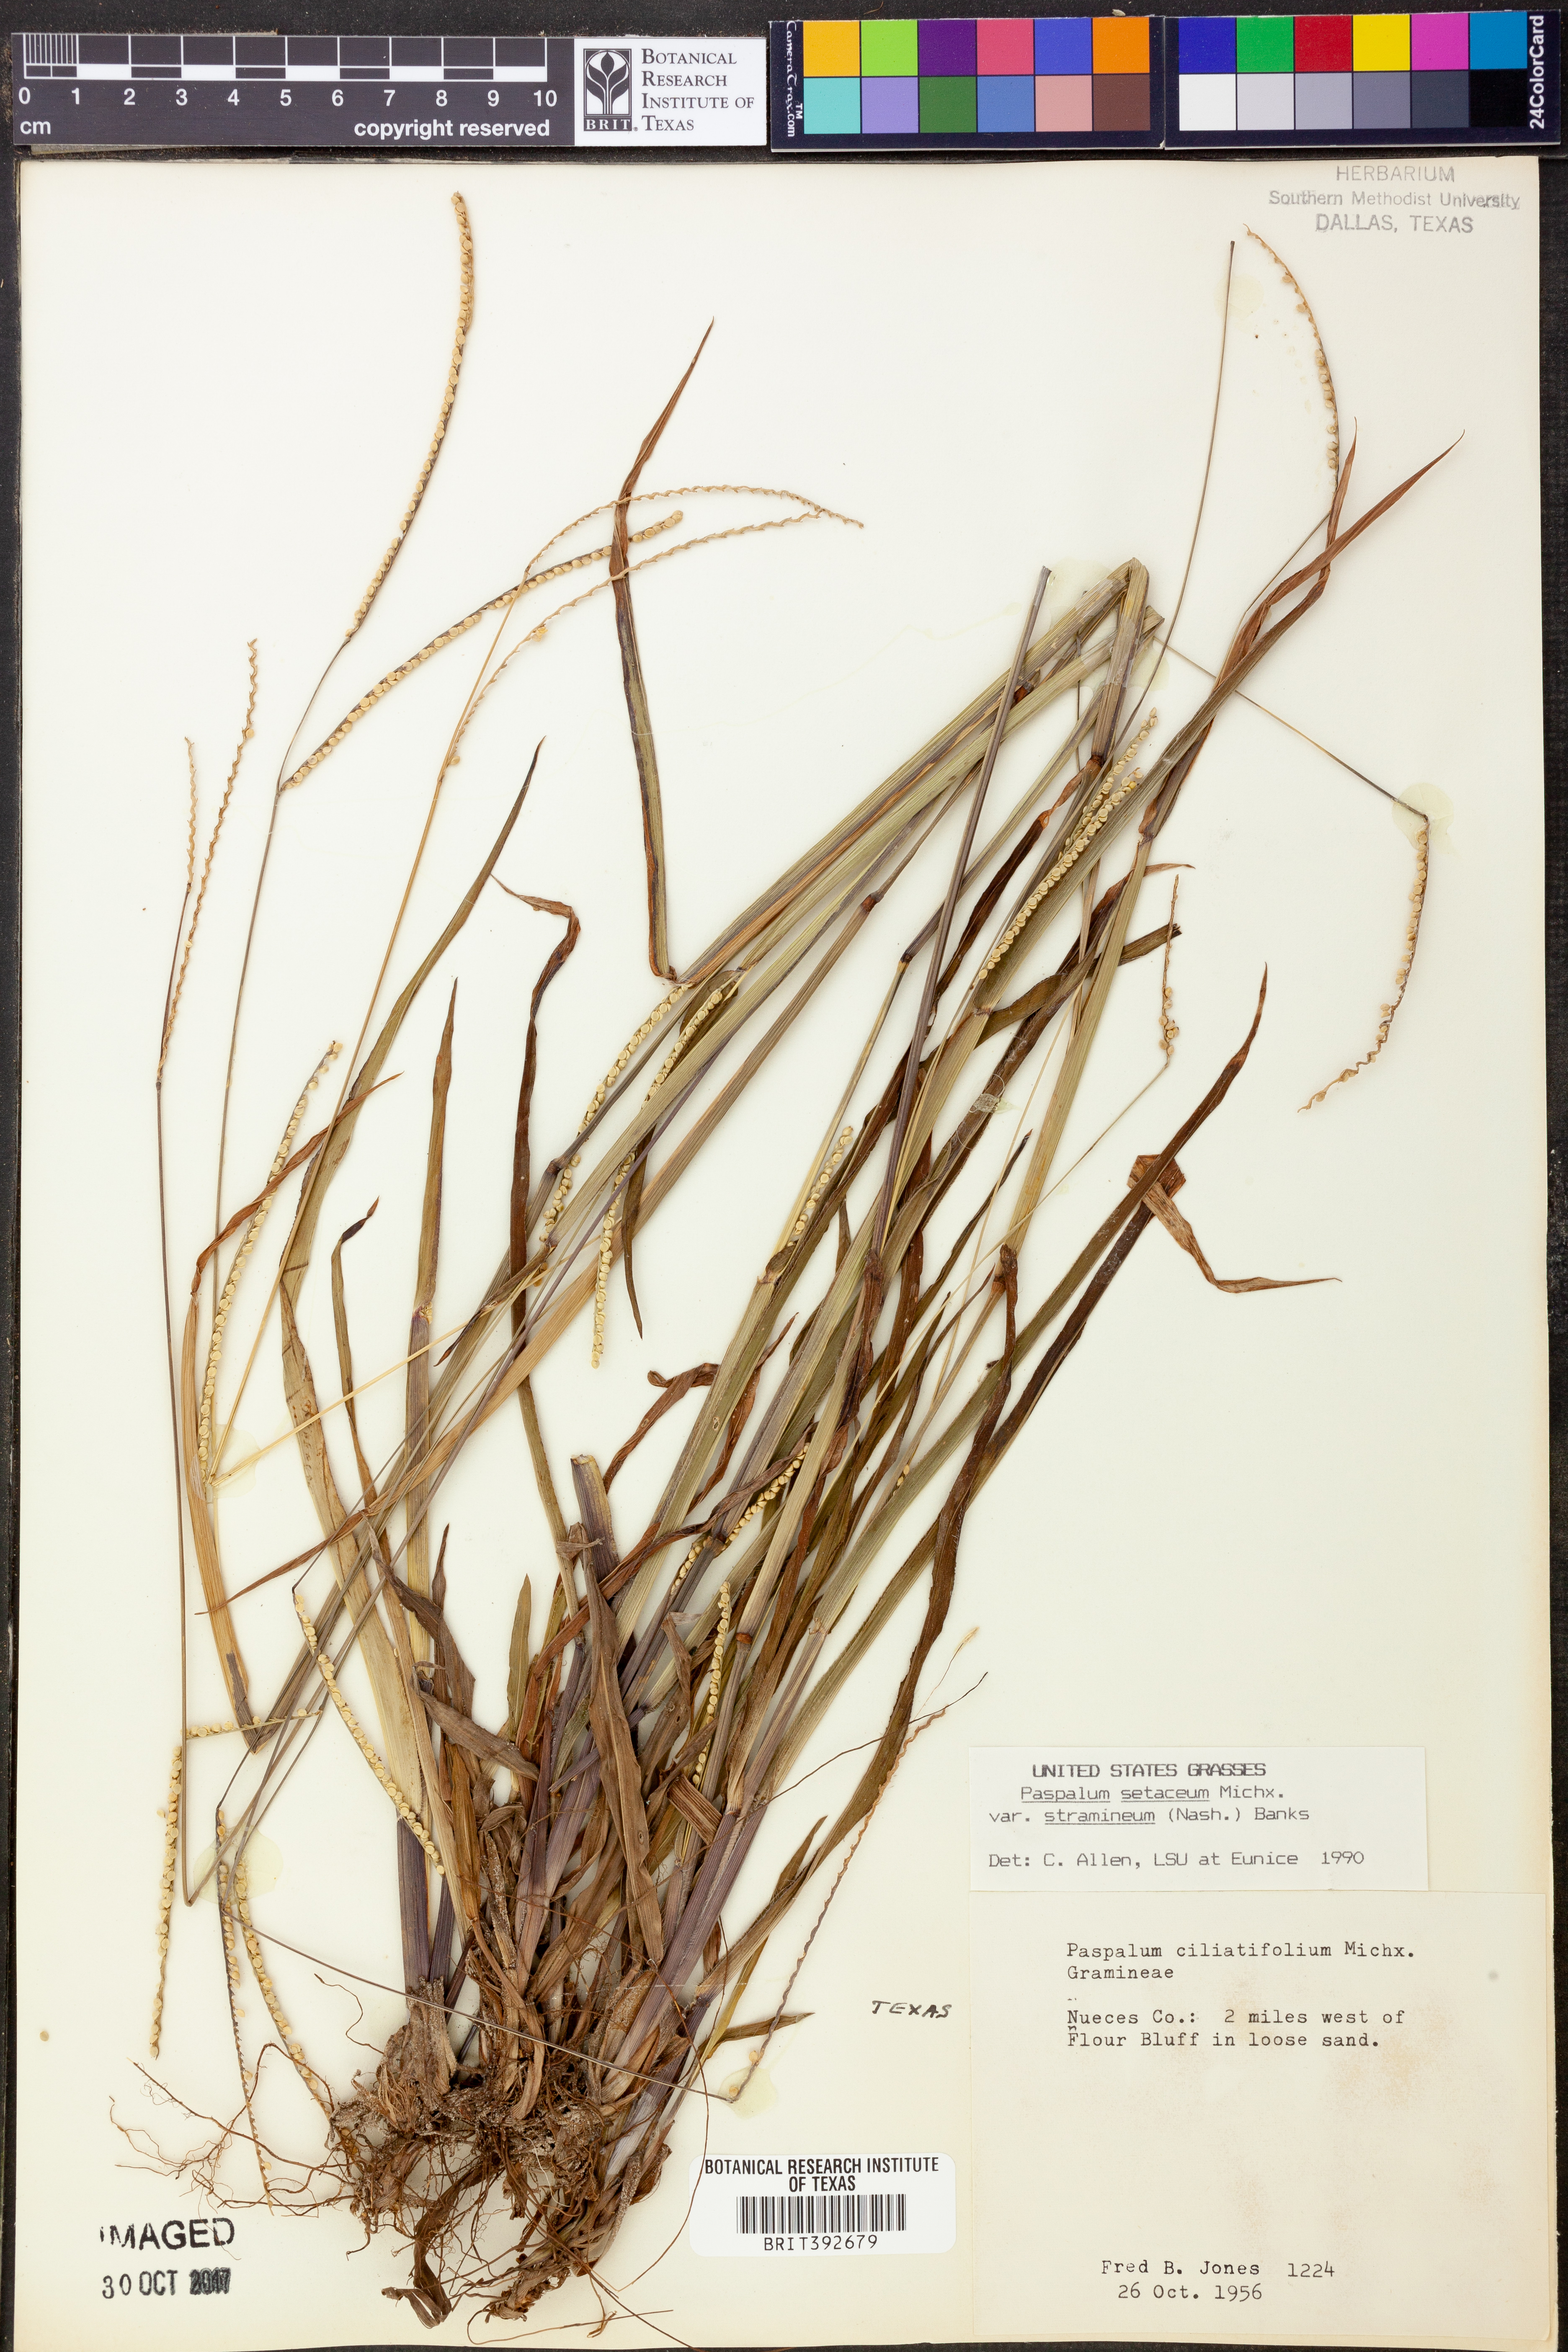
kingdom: Plantae
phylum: Tracheophyta
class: Liliopsida
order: Poales
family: Poaceae
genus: Paspalum
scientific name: Paspalum setaceum
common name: Slender paspalum
